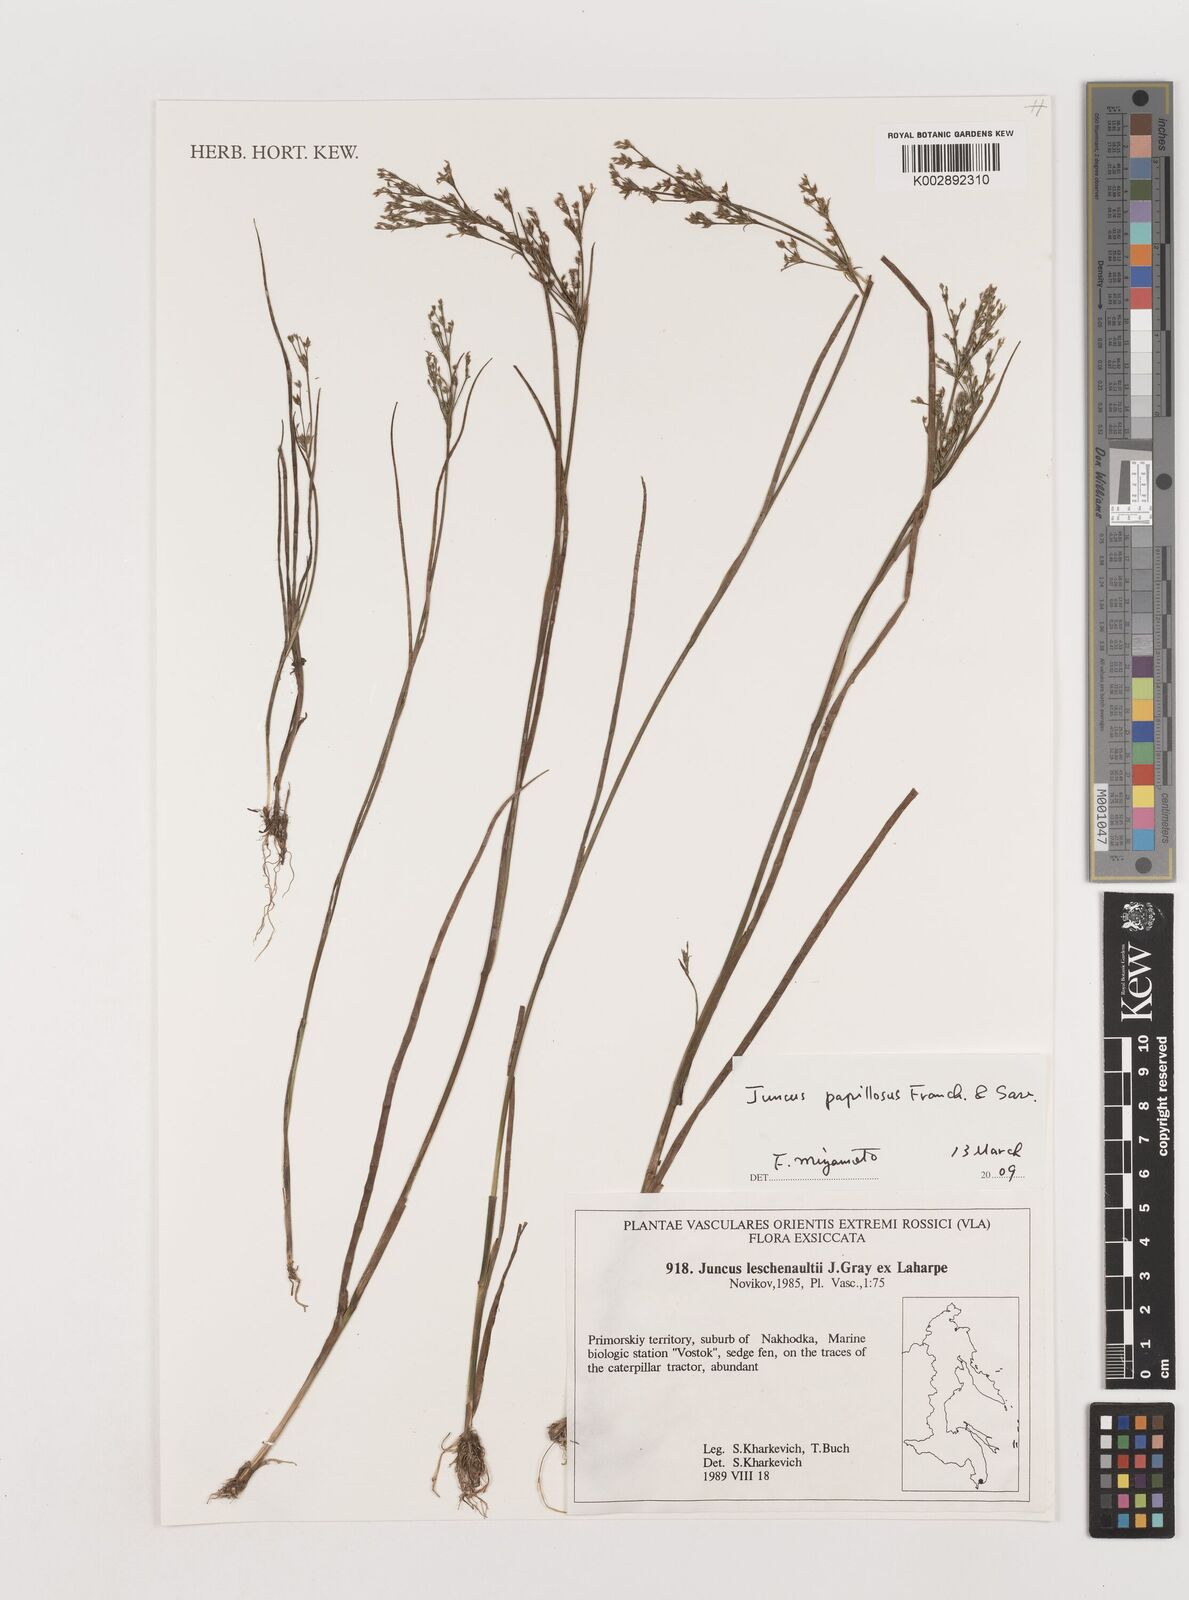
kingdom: Plantae
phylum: Tracheophyta
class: Liliopsida
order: Poales
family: Juncaceae
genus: Juncus
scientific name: Juncus prismatocarpus
